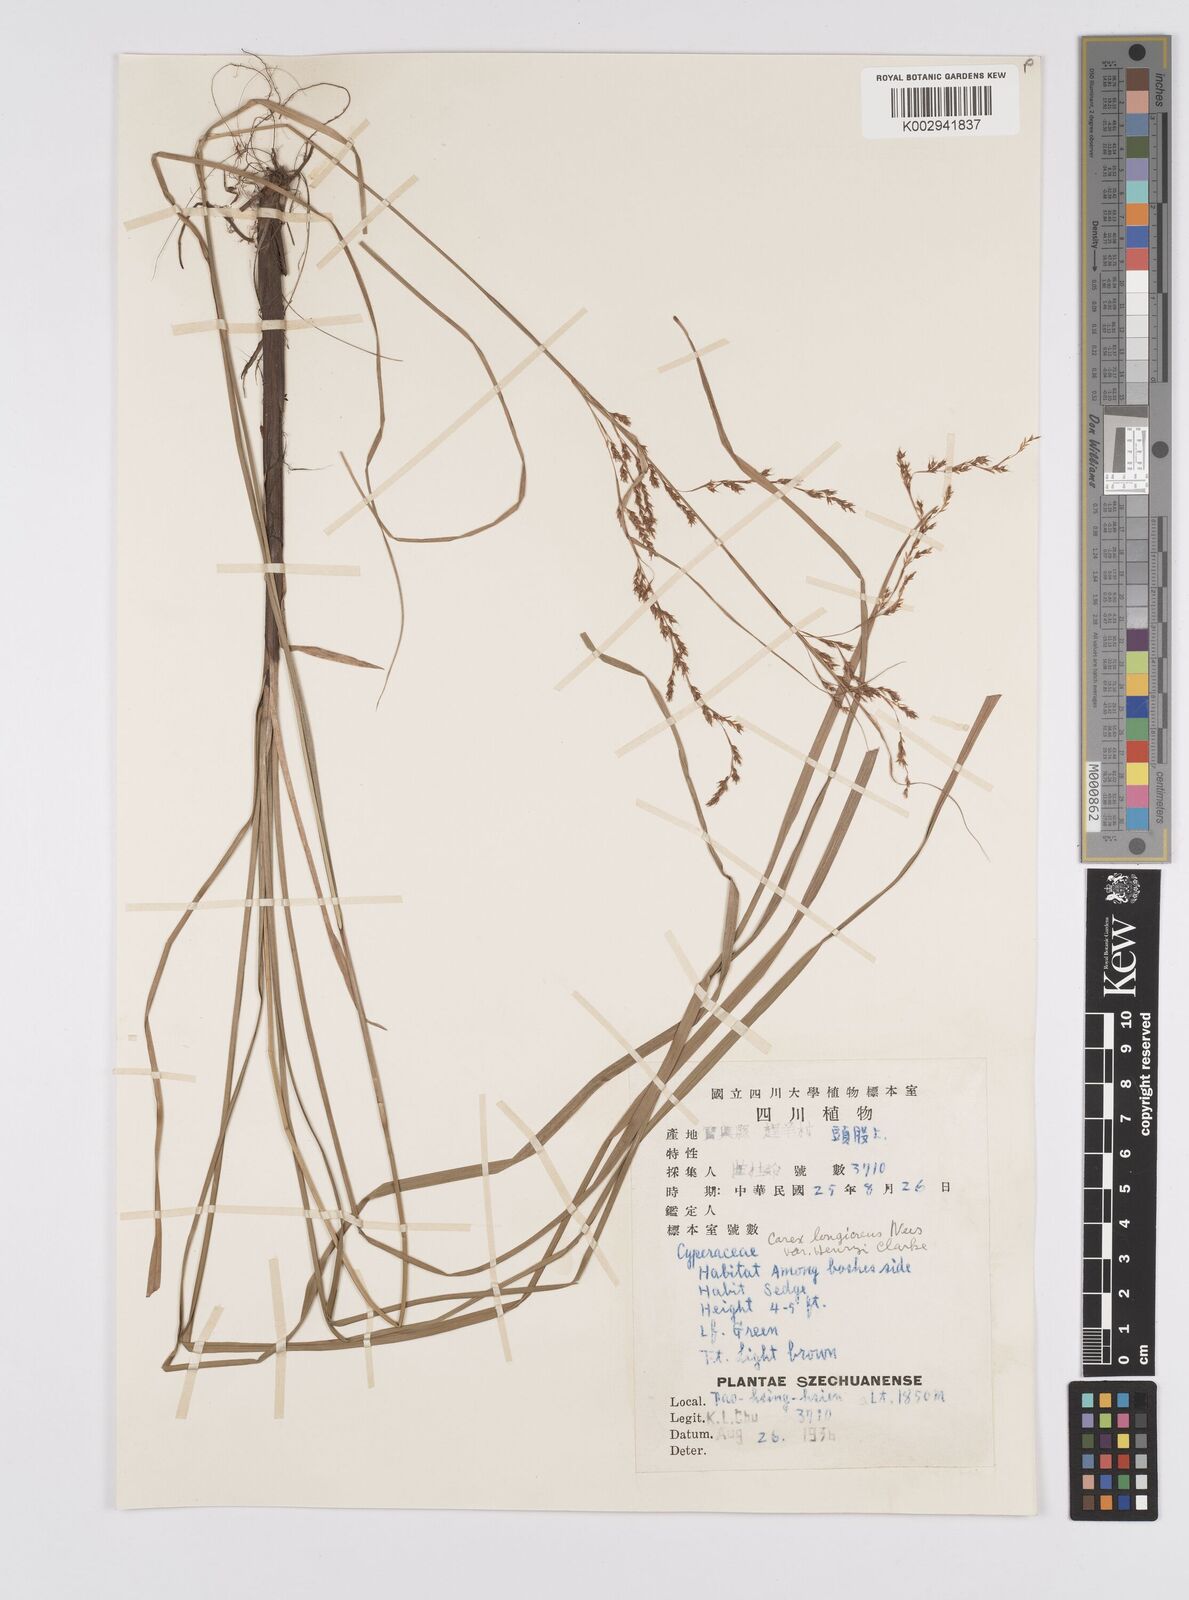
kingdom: Plantae
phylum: Tracheophyta
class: Liliopsida
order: Poales
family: Cyperaceae
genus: Carex
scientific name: Carex gentilis
